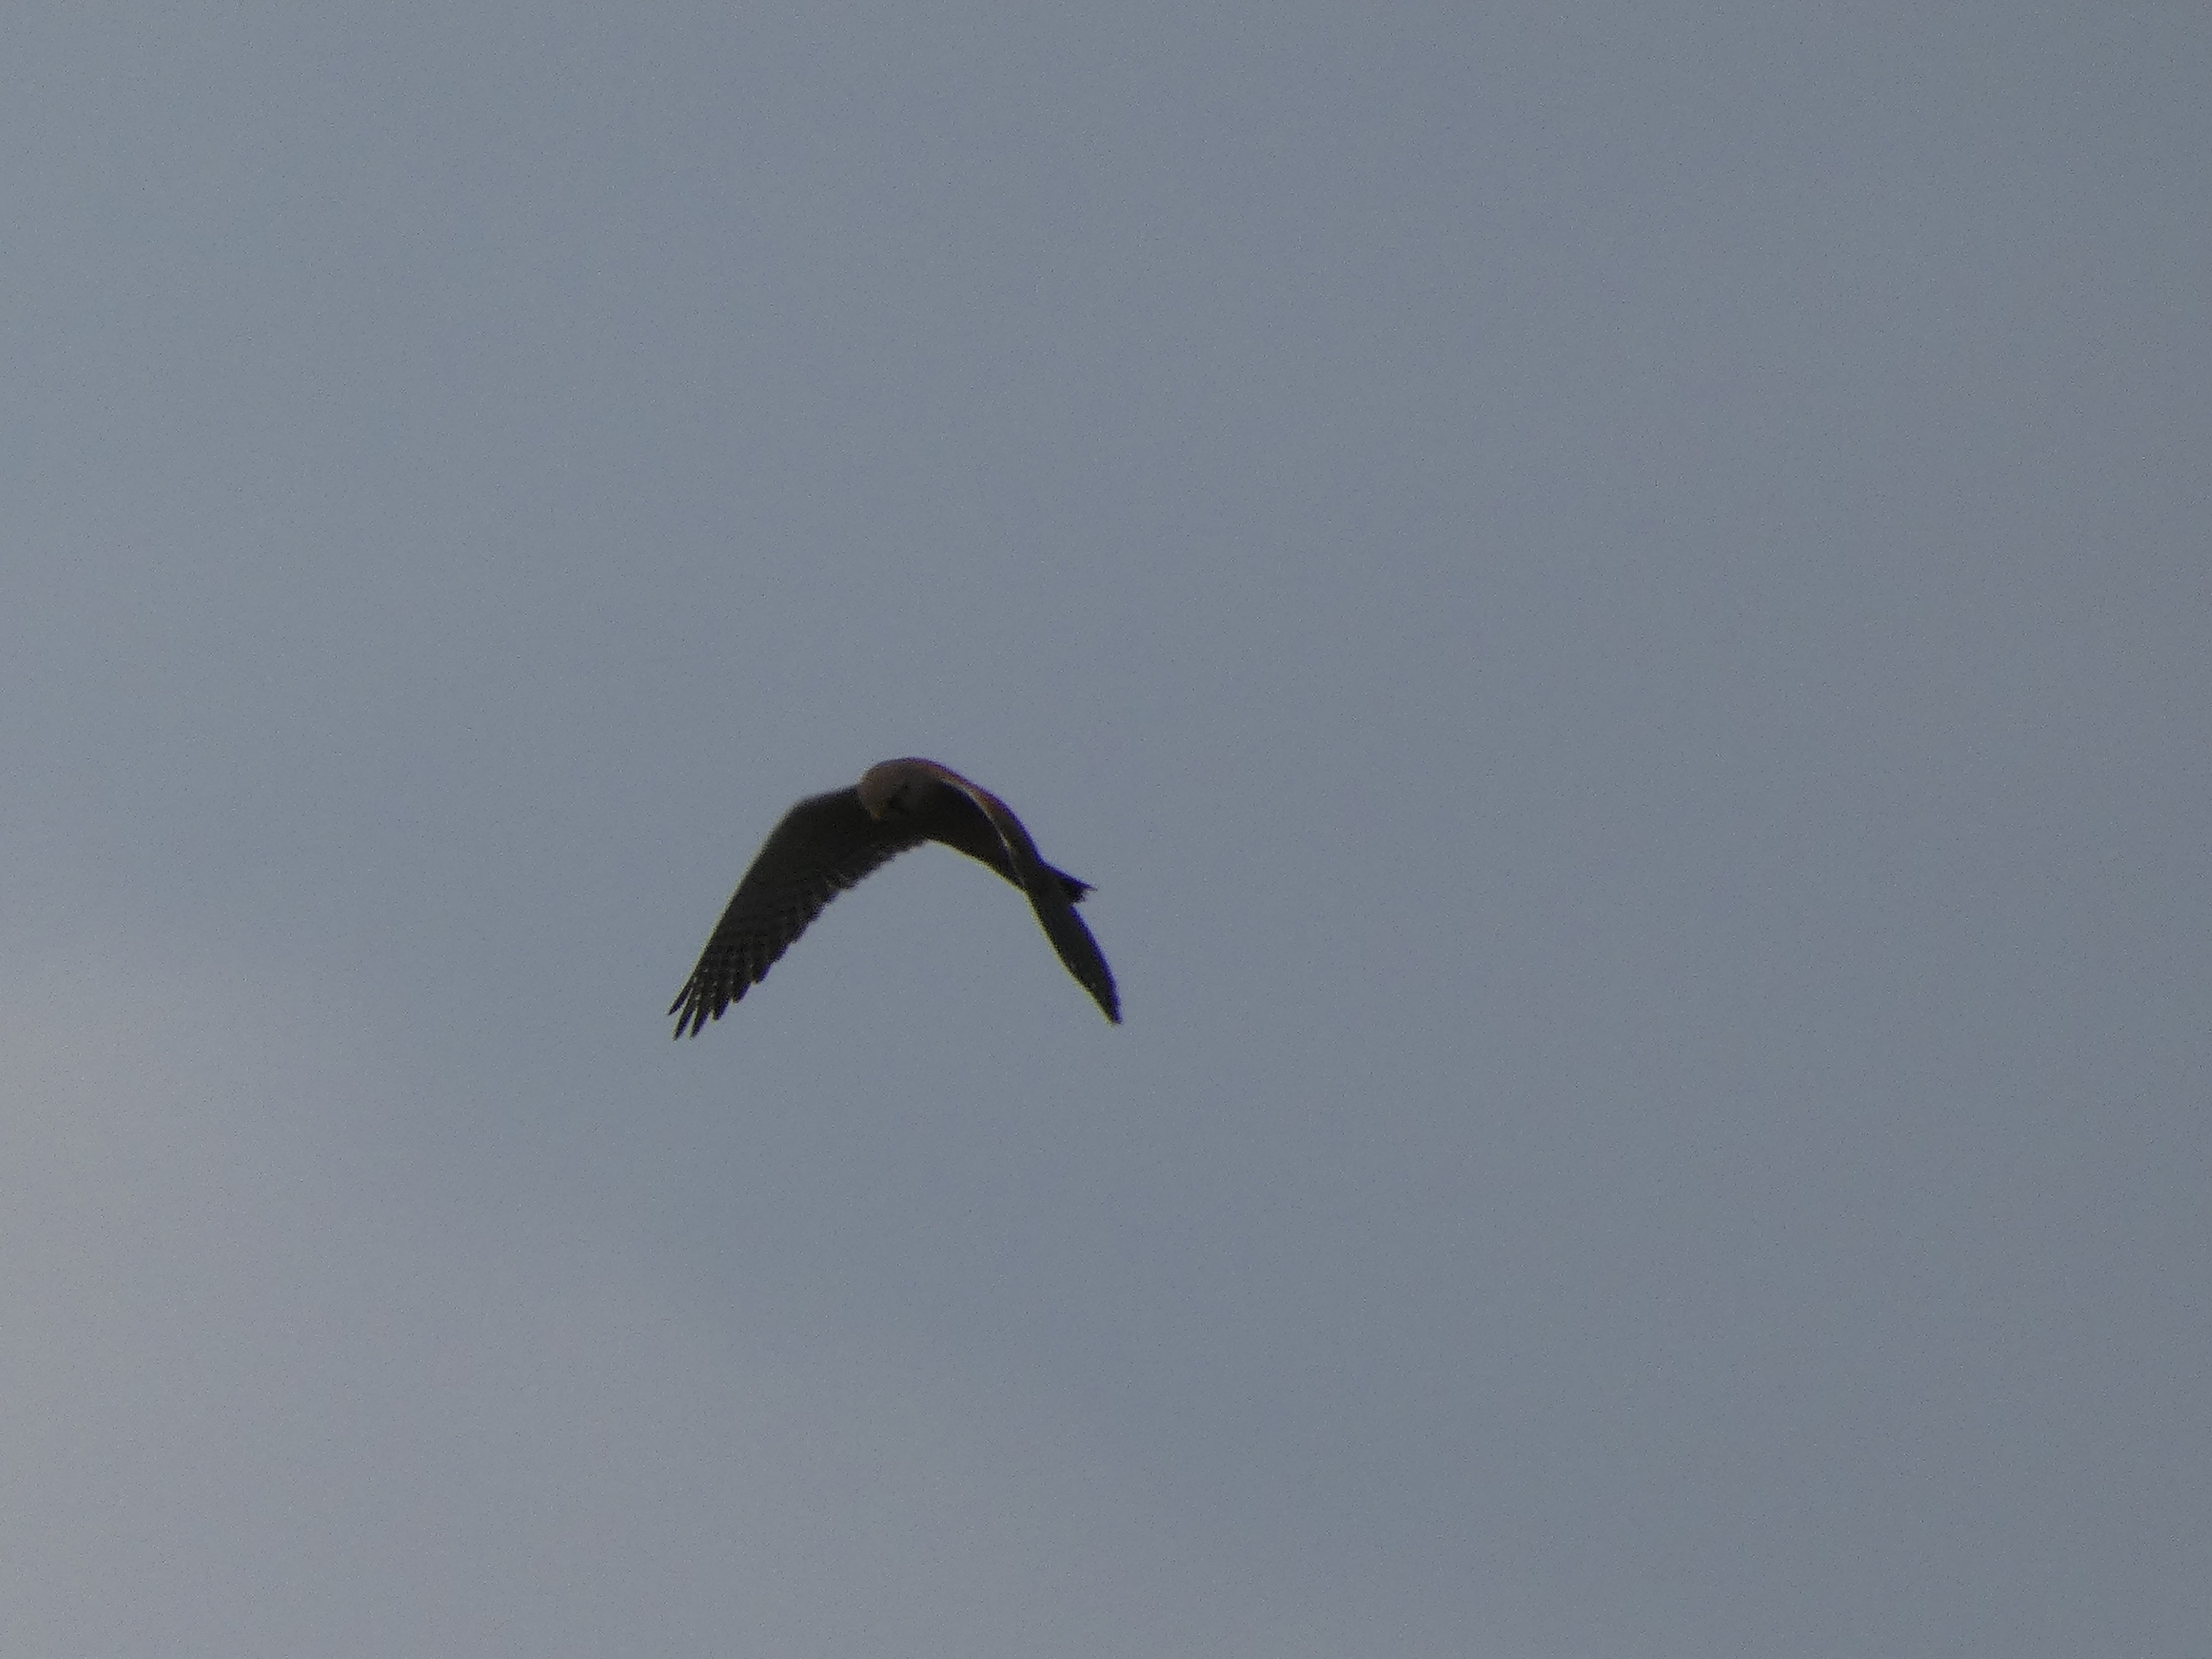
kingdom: Animalia
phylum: Chordata
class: Aves
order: Falconiformes
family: Falconidae
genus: Falco
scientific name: Falco tinnunculus
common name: Tårnfalk
